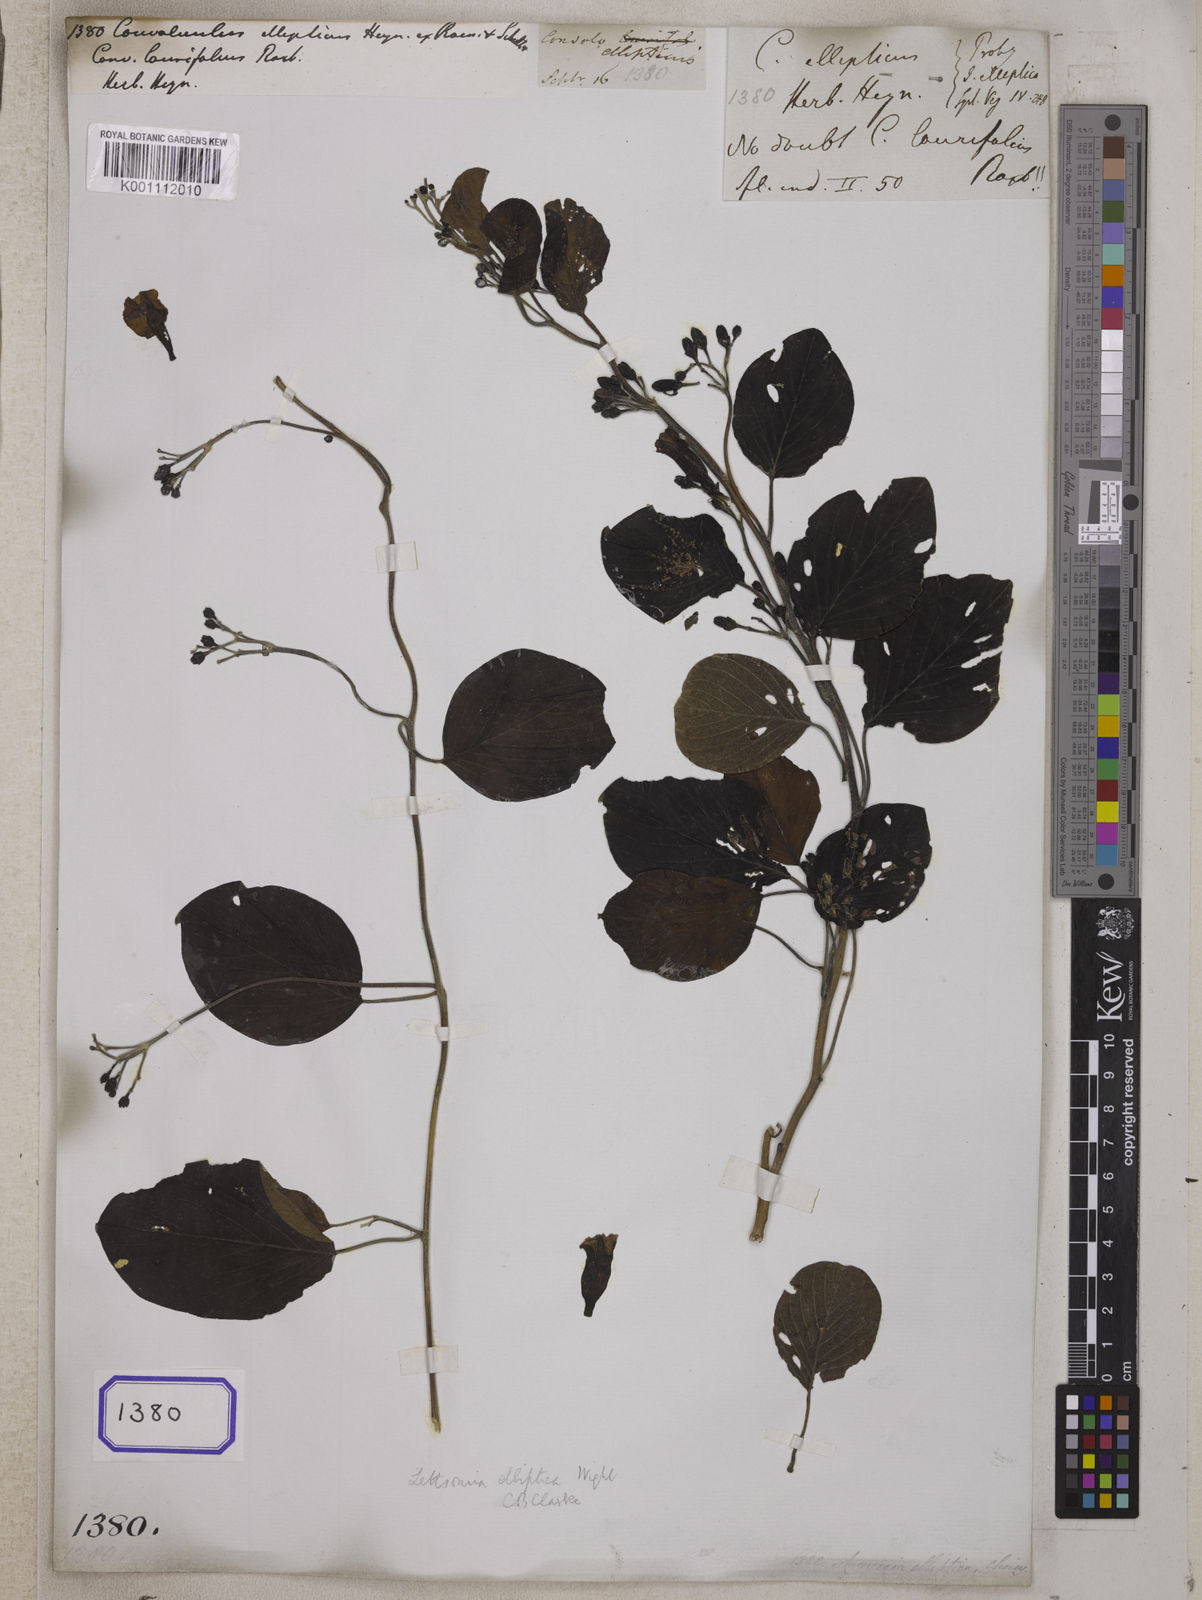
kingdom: Plantae
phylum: Tracheophyta
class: Magnoliopsida
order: Solanales
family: Convolvulaceae
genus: Argyreia
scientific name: Argyreia elliptica
